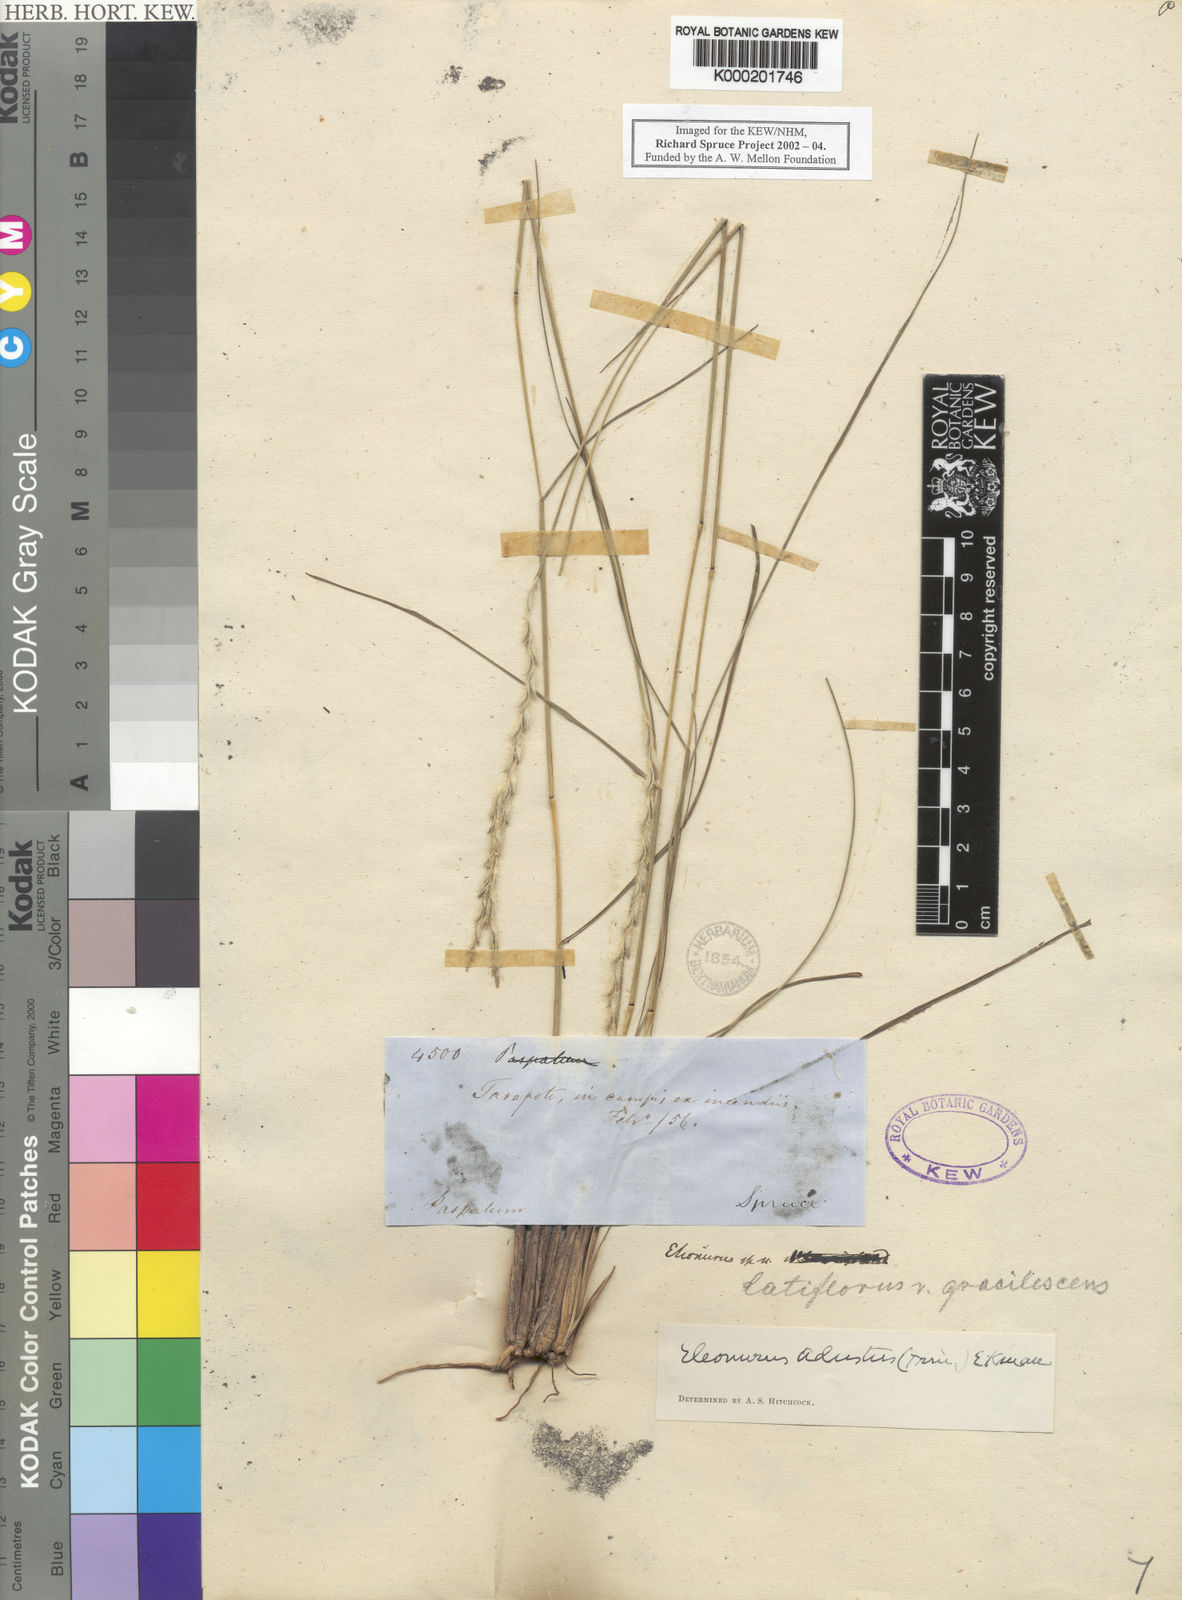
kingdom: Plantae
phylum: Tracheophyta
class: Liliopsida
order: Poales
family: Poaceae
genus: Elionurus
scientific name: Elionurus muticus
